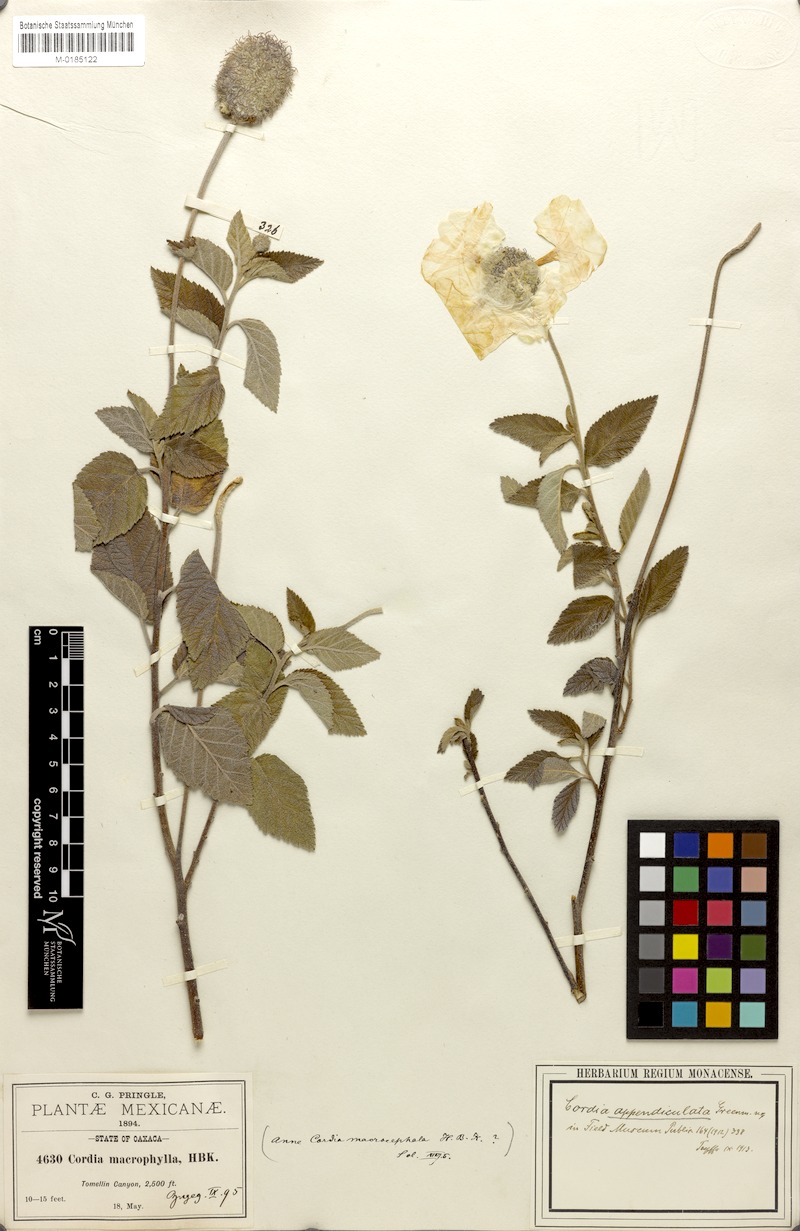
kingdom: Plantae
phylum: Tracheophyta
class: Magnoliopsida
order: Boraginales
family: Cordiaceae
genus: Varronia
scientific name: Varronia oaxacana
